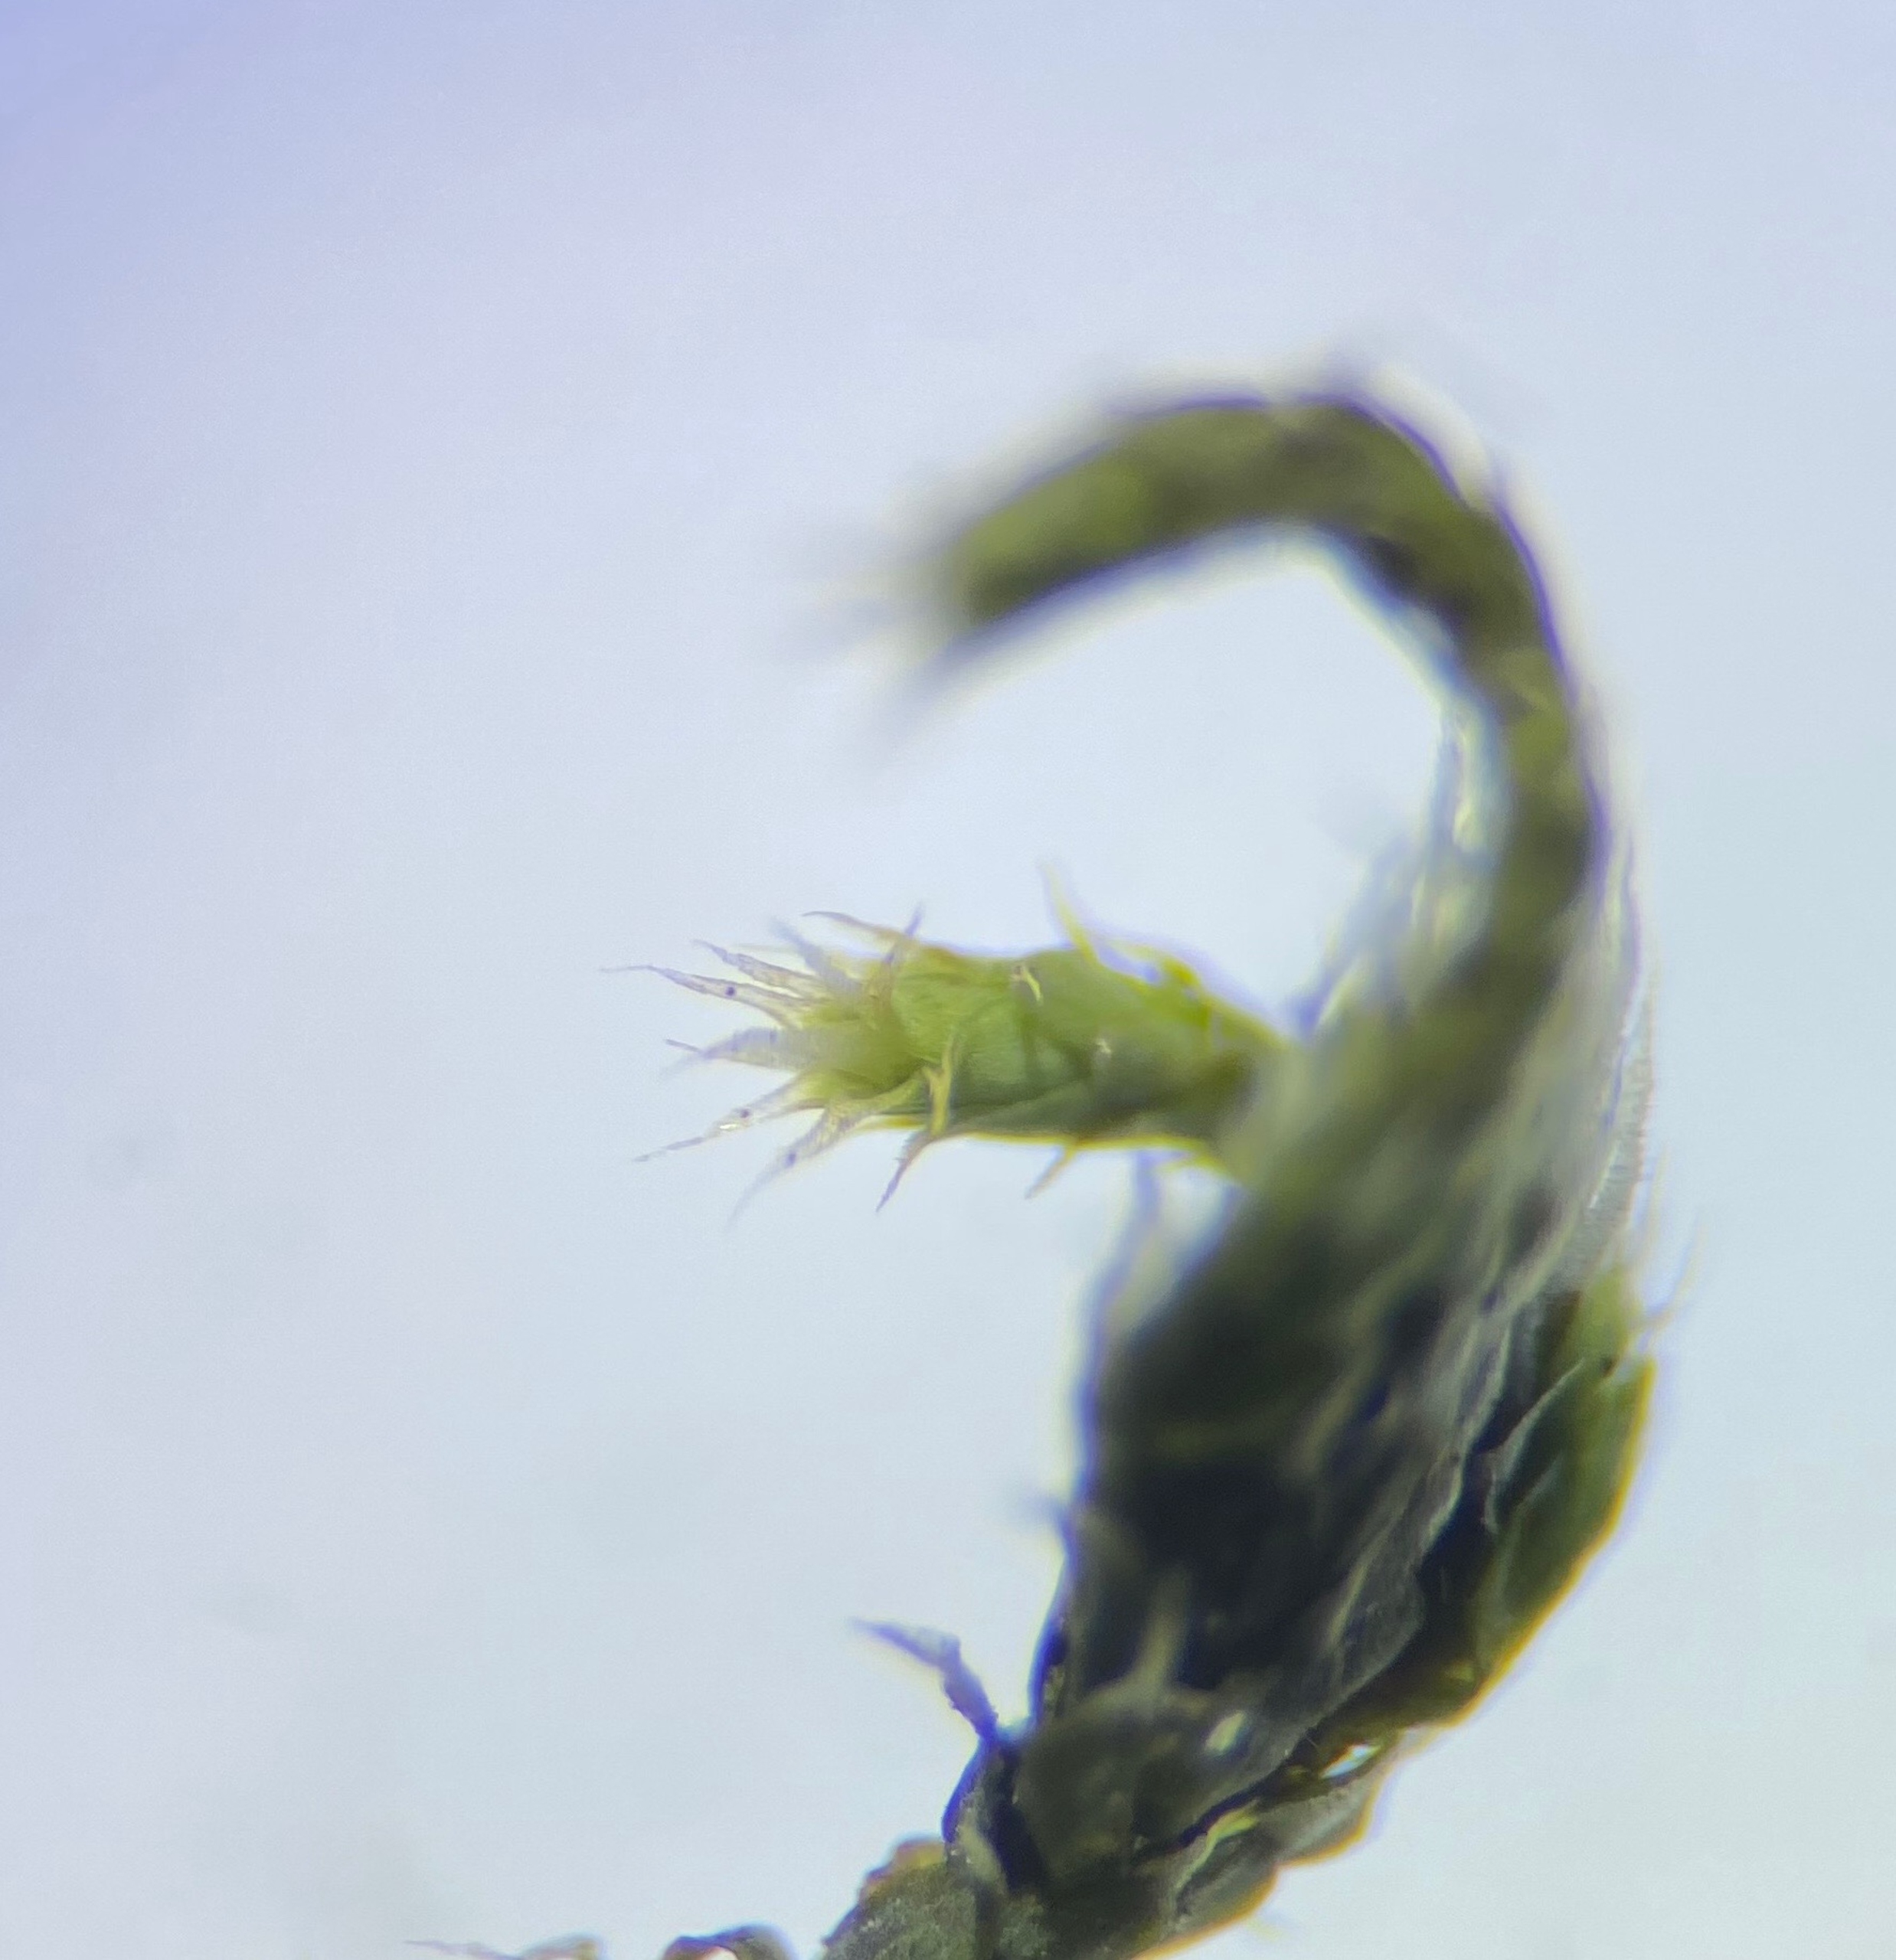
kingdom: Plantae
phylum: Bryophyta
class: Bryopsida
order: Hedwigiales
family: Hedwigiaceae
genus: Hedwigia
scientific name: Hedwigia stellata
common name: Stjernebladet hedwigia
